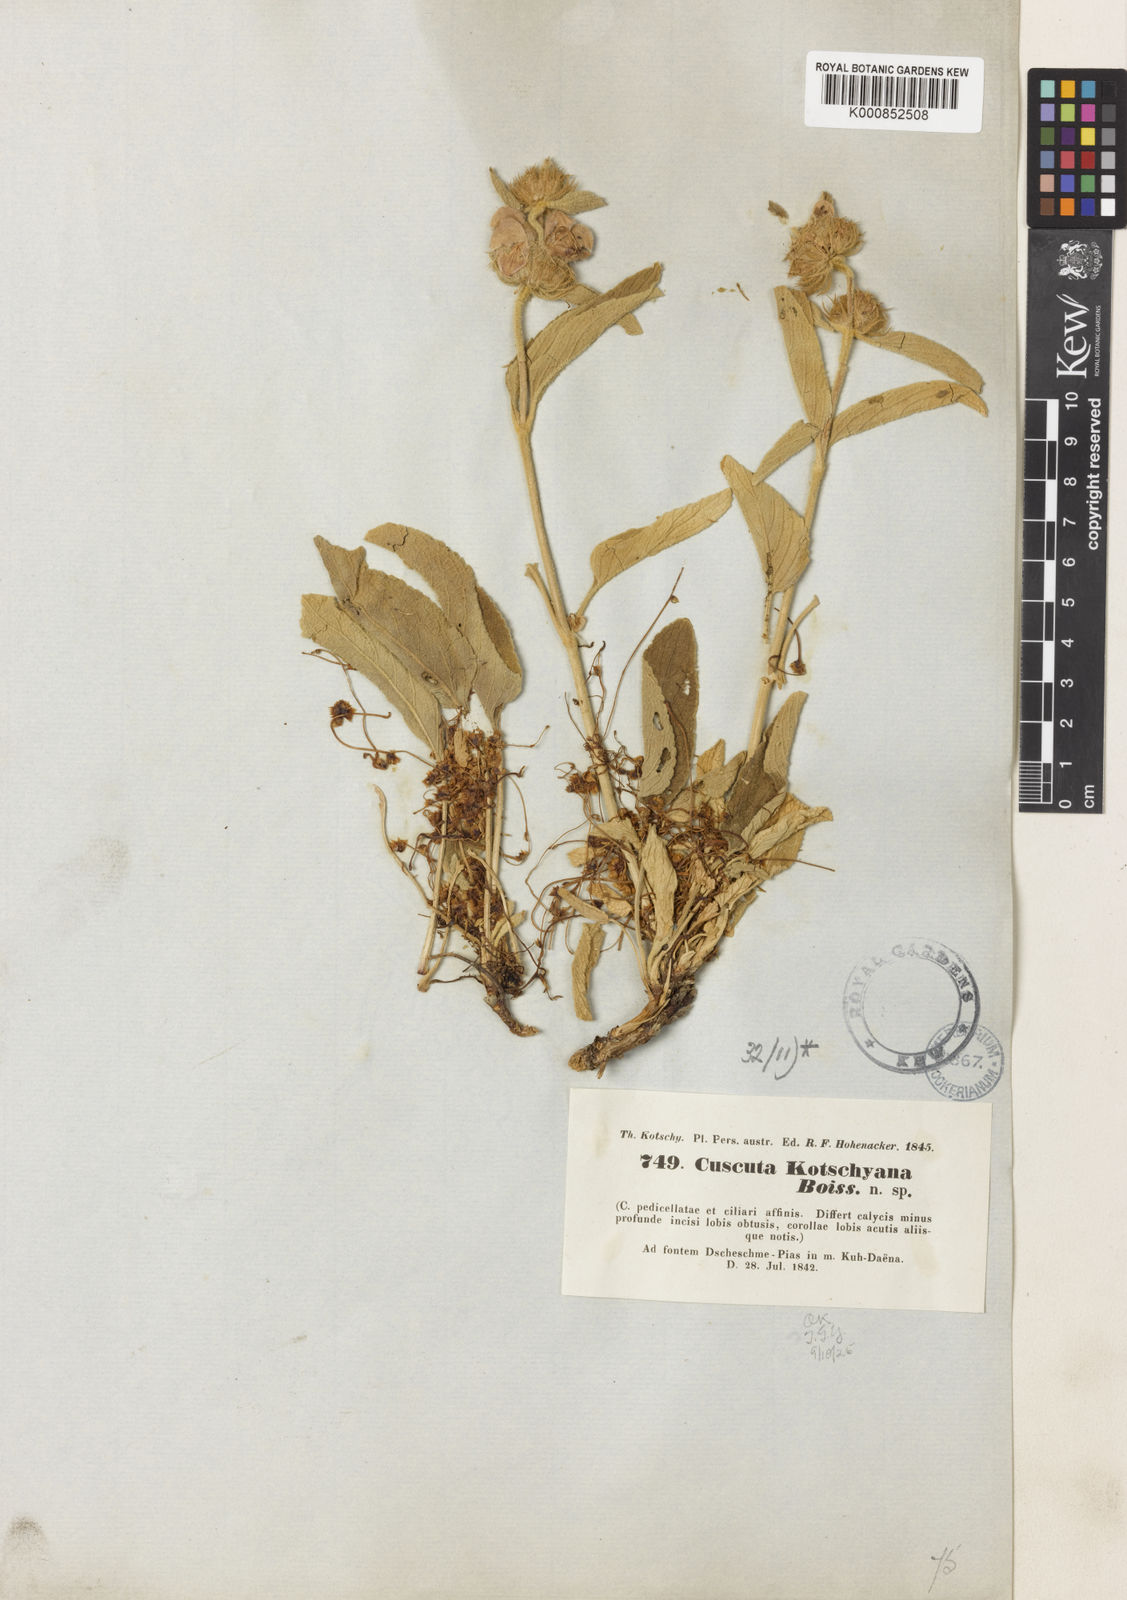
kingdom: Plantae
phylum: Tracheophyta
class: Magnoliopsida
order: Solanales
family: Convolvulaceae
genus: Cuscuta
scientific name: Cuscuta kotschyana
